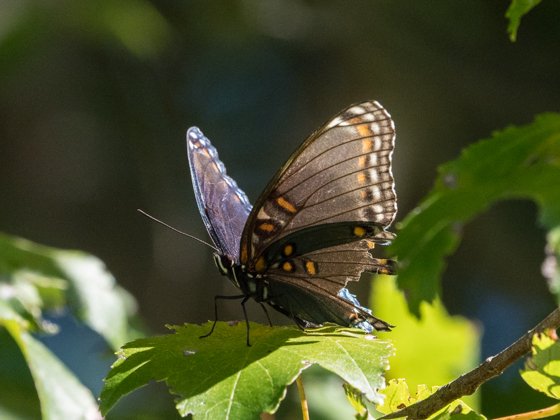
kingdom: Animalia
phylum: Arthropoda
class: Insecta
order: Lepidoptera
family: Nymphalidae
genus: Limenitis
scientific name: Limenitis astyanax
